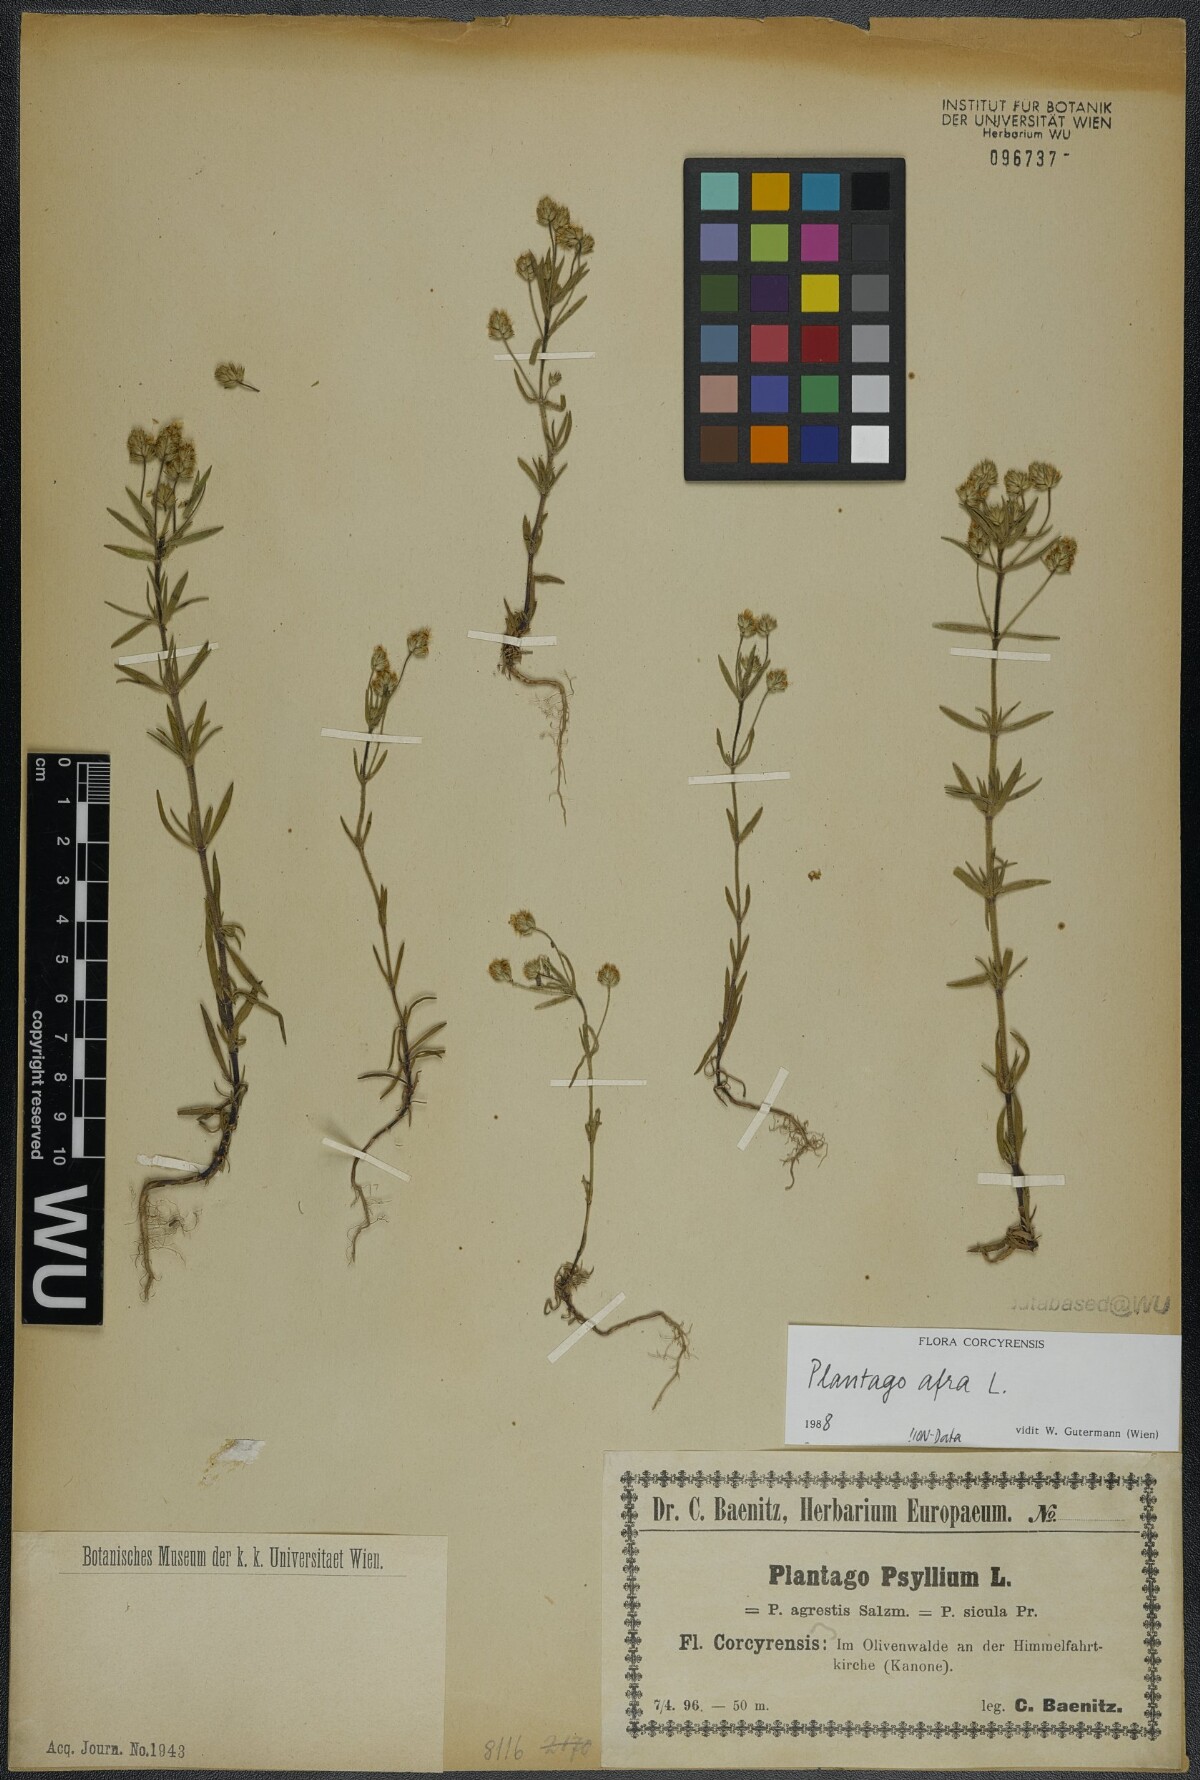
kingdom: Plantae
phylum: Tracheophyta
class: Magnoliopsida
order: Lamiales
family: Plantaginaceae
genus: Plantago
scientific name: Plantago afra
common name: Glandular plantain
